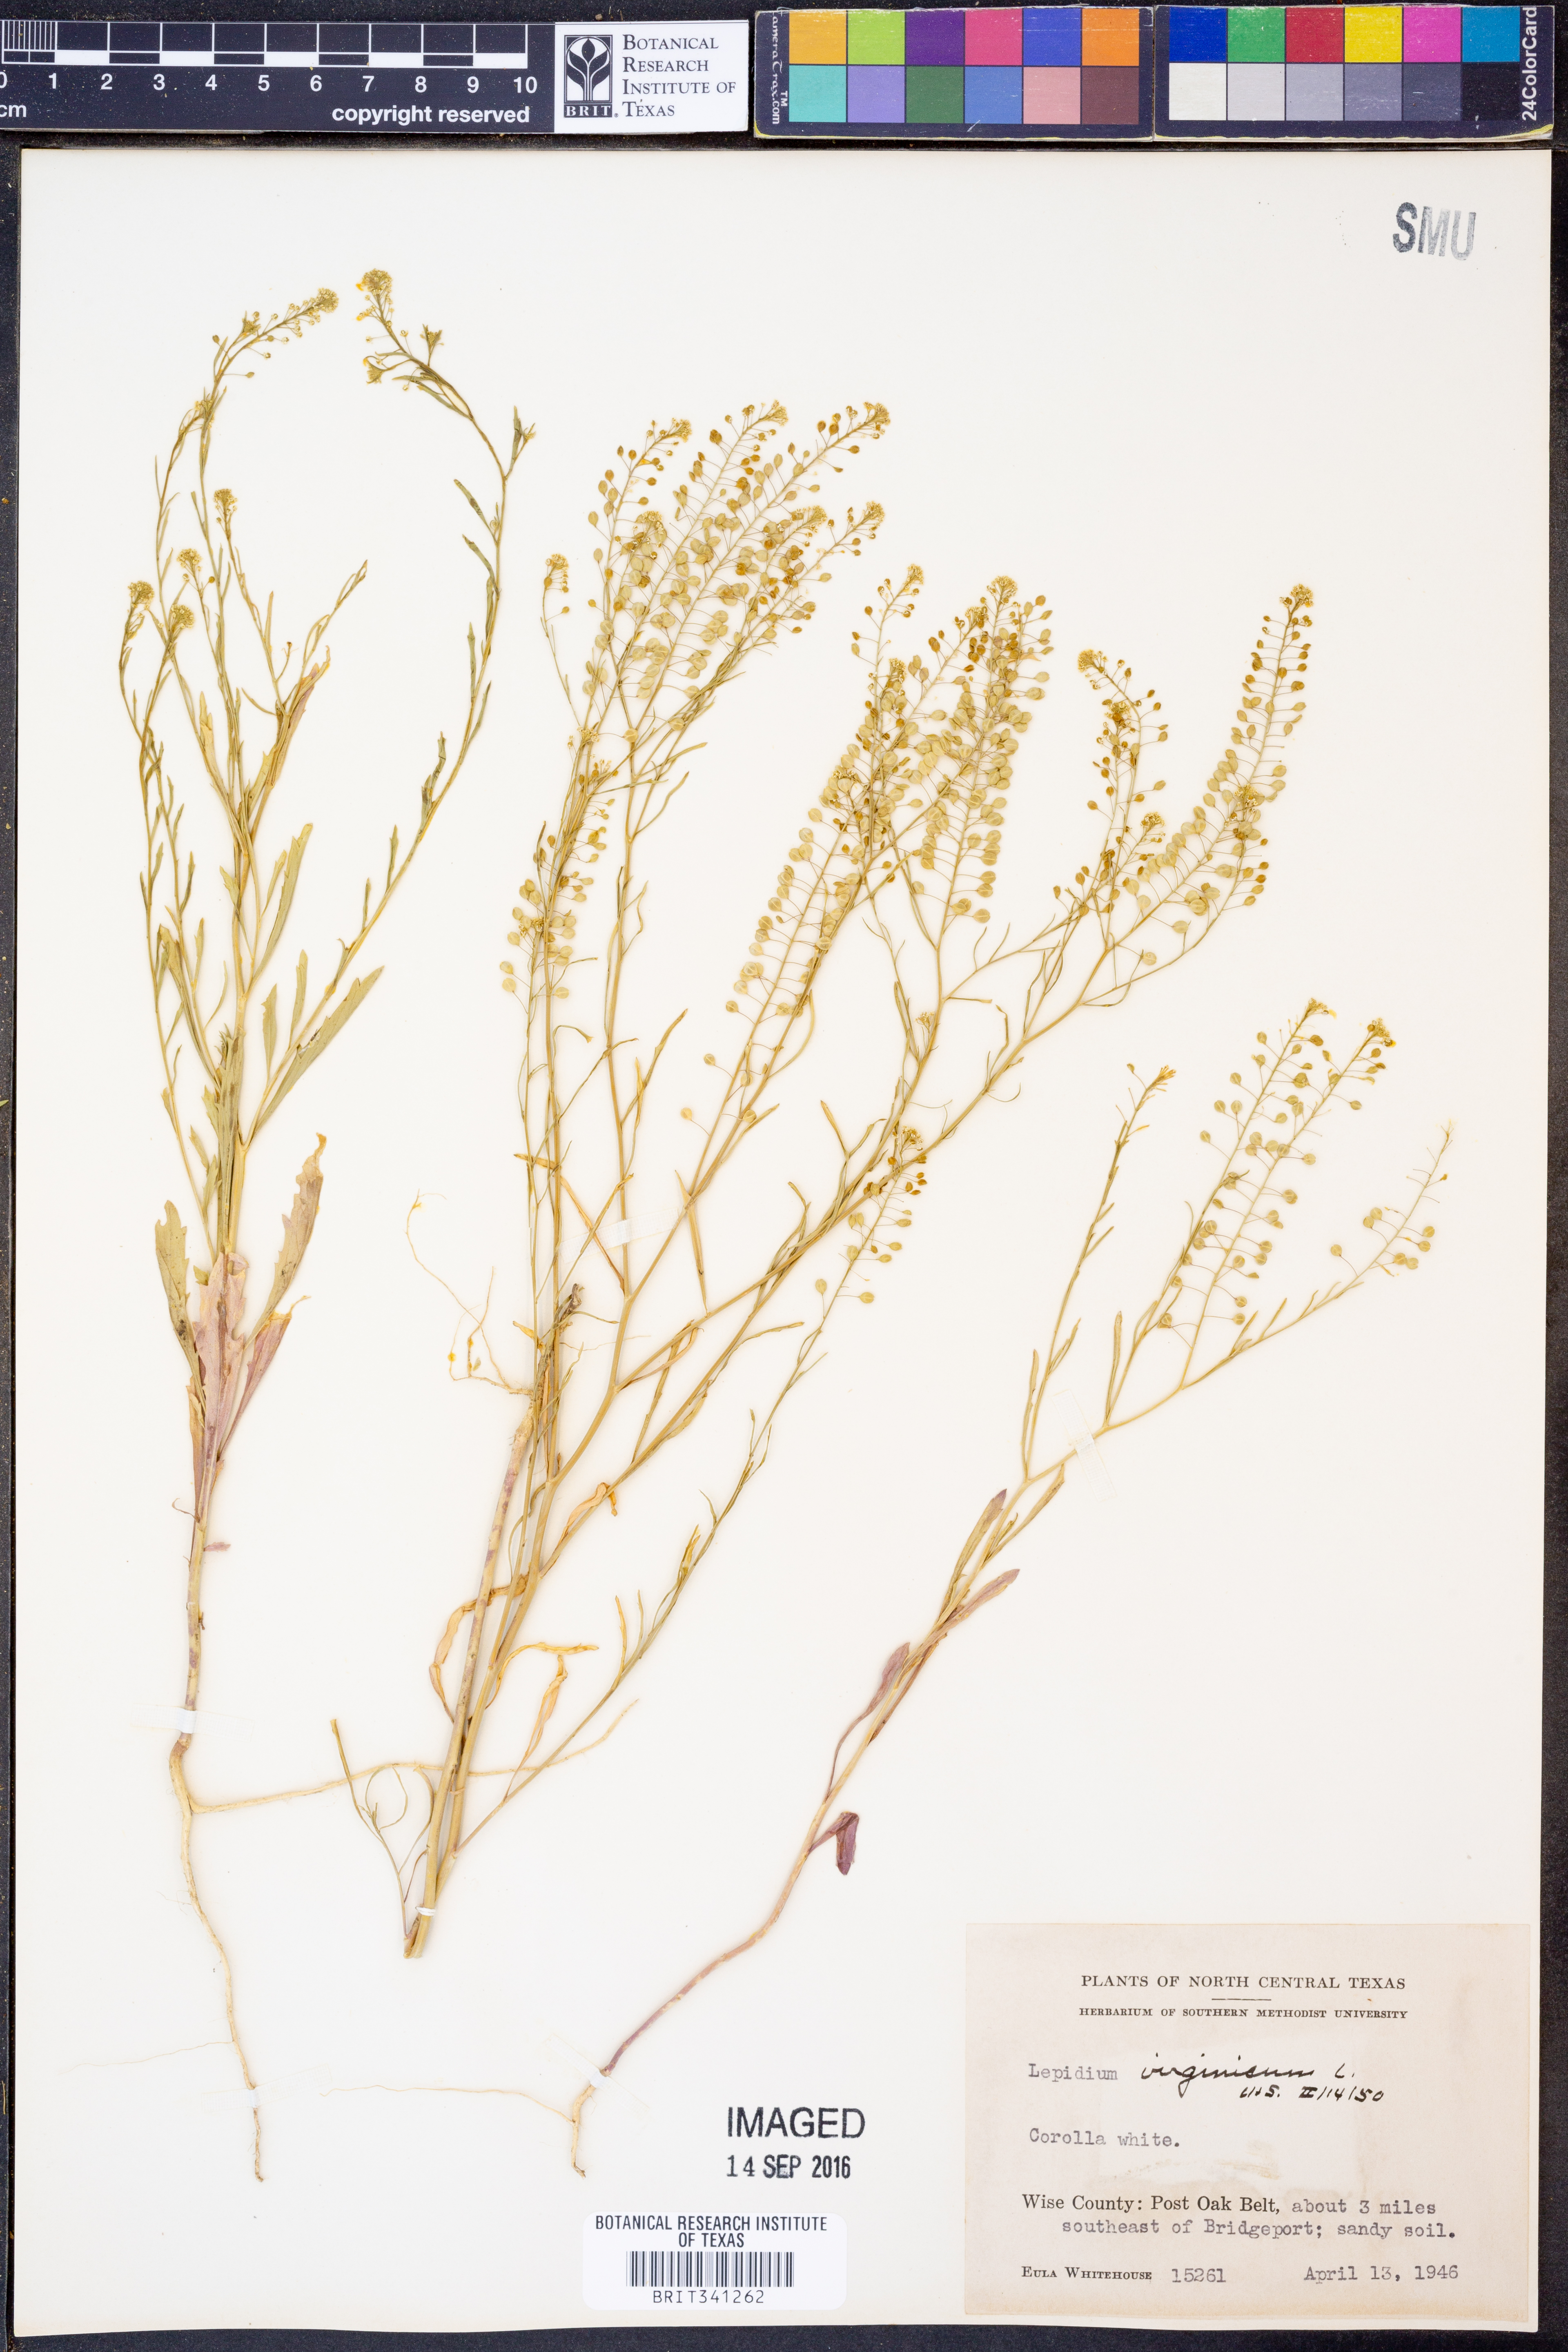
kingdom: Plantae
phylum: Tracheophyta
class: Magnoliopsida
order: Brassicales
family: Brassicaceae
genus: Lepidium
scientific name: Lepidium virginicum
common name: Least pepperwort
